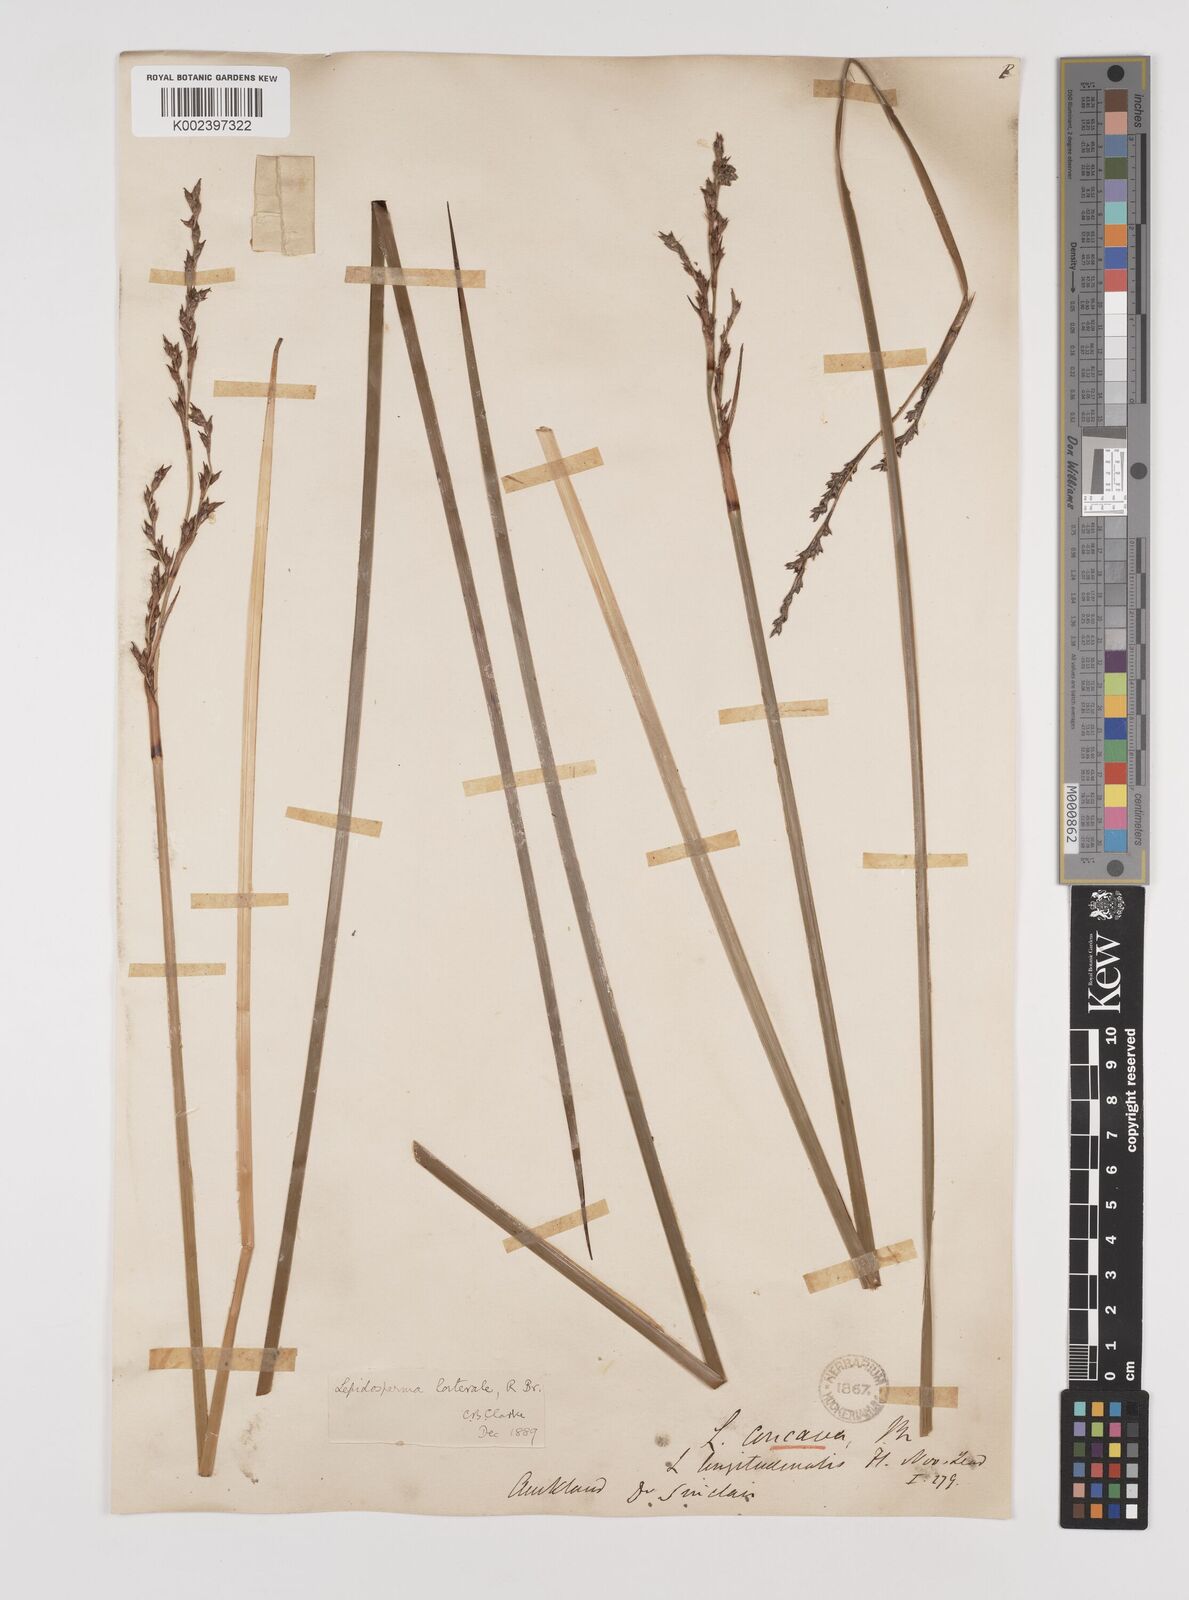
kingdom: Plantae
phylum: Tracheophyta
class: Liliopsida
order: Poales
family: Cyperaceae
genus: Lepidosperma
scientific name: Lepidosperma laterale
